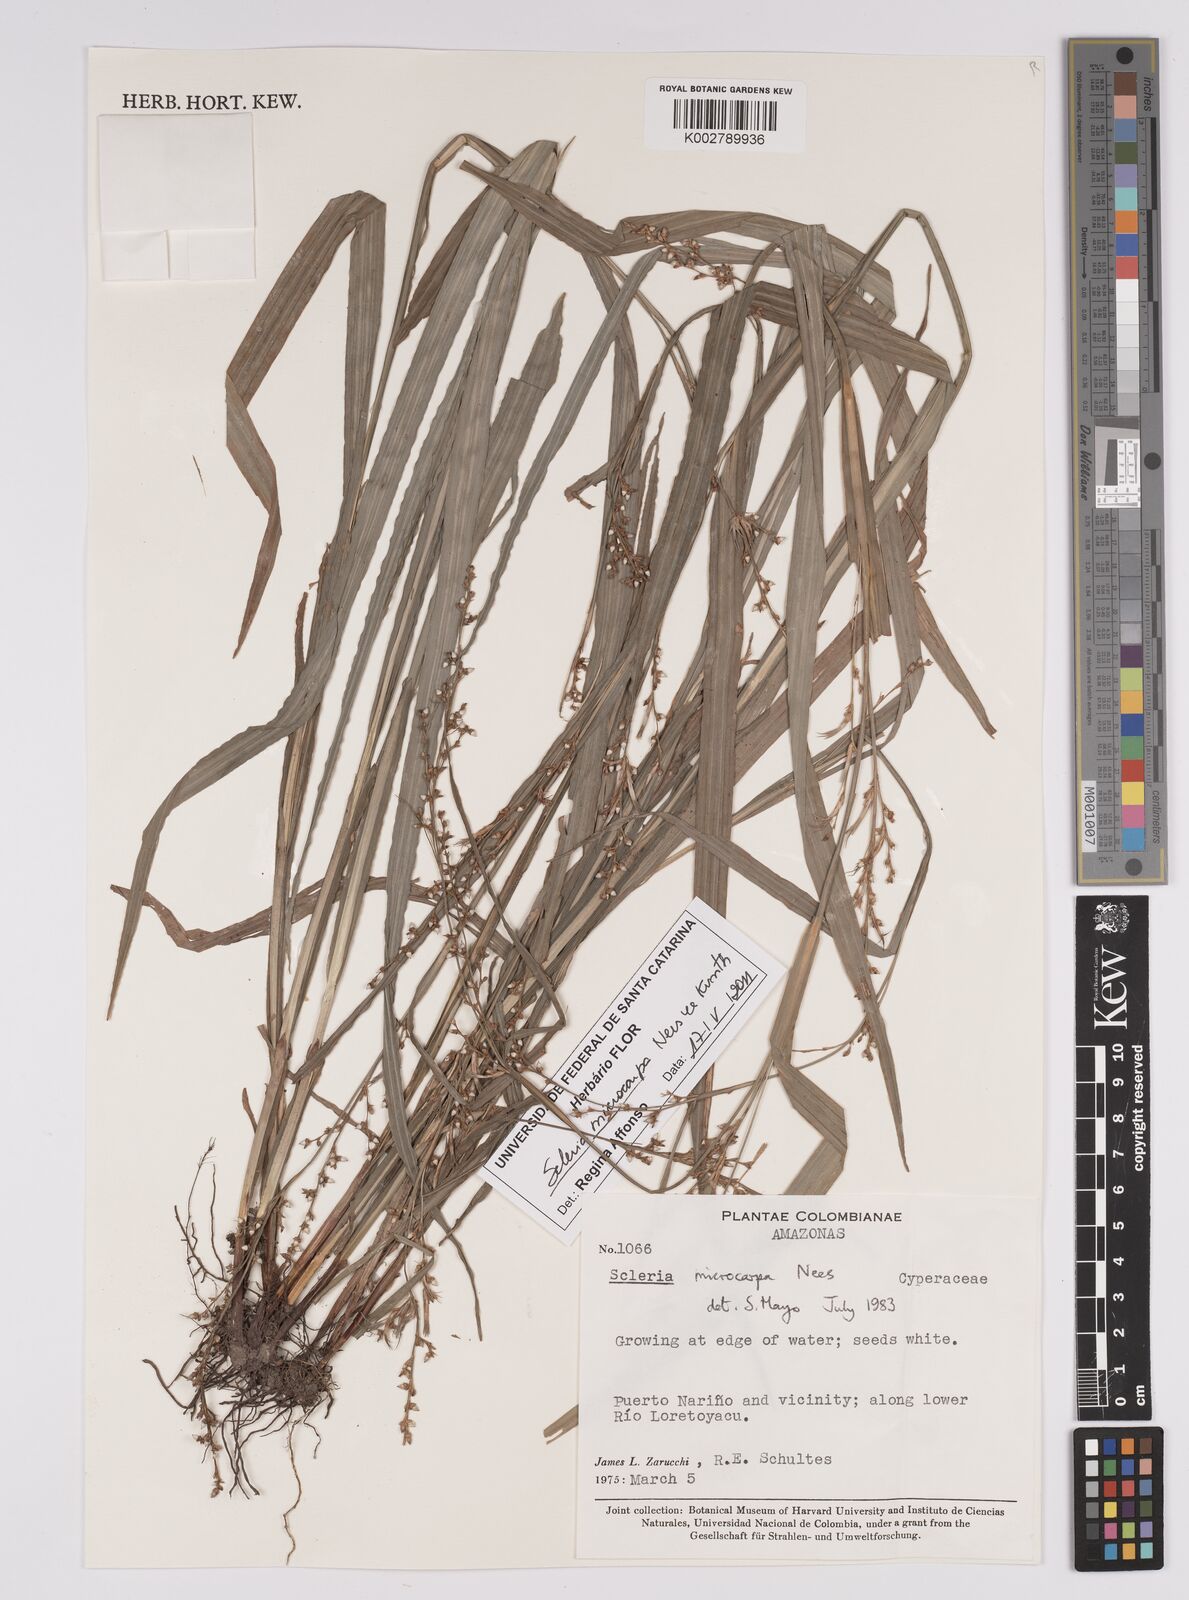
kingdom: Plantae
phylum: Tracheophyta
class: Liliopsida
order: Poales
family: Cyperaceae
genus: Scleria
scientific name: Scleria microcarpa
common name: Tropical nutrush
